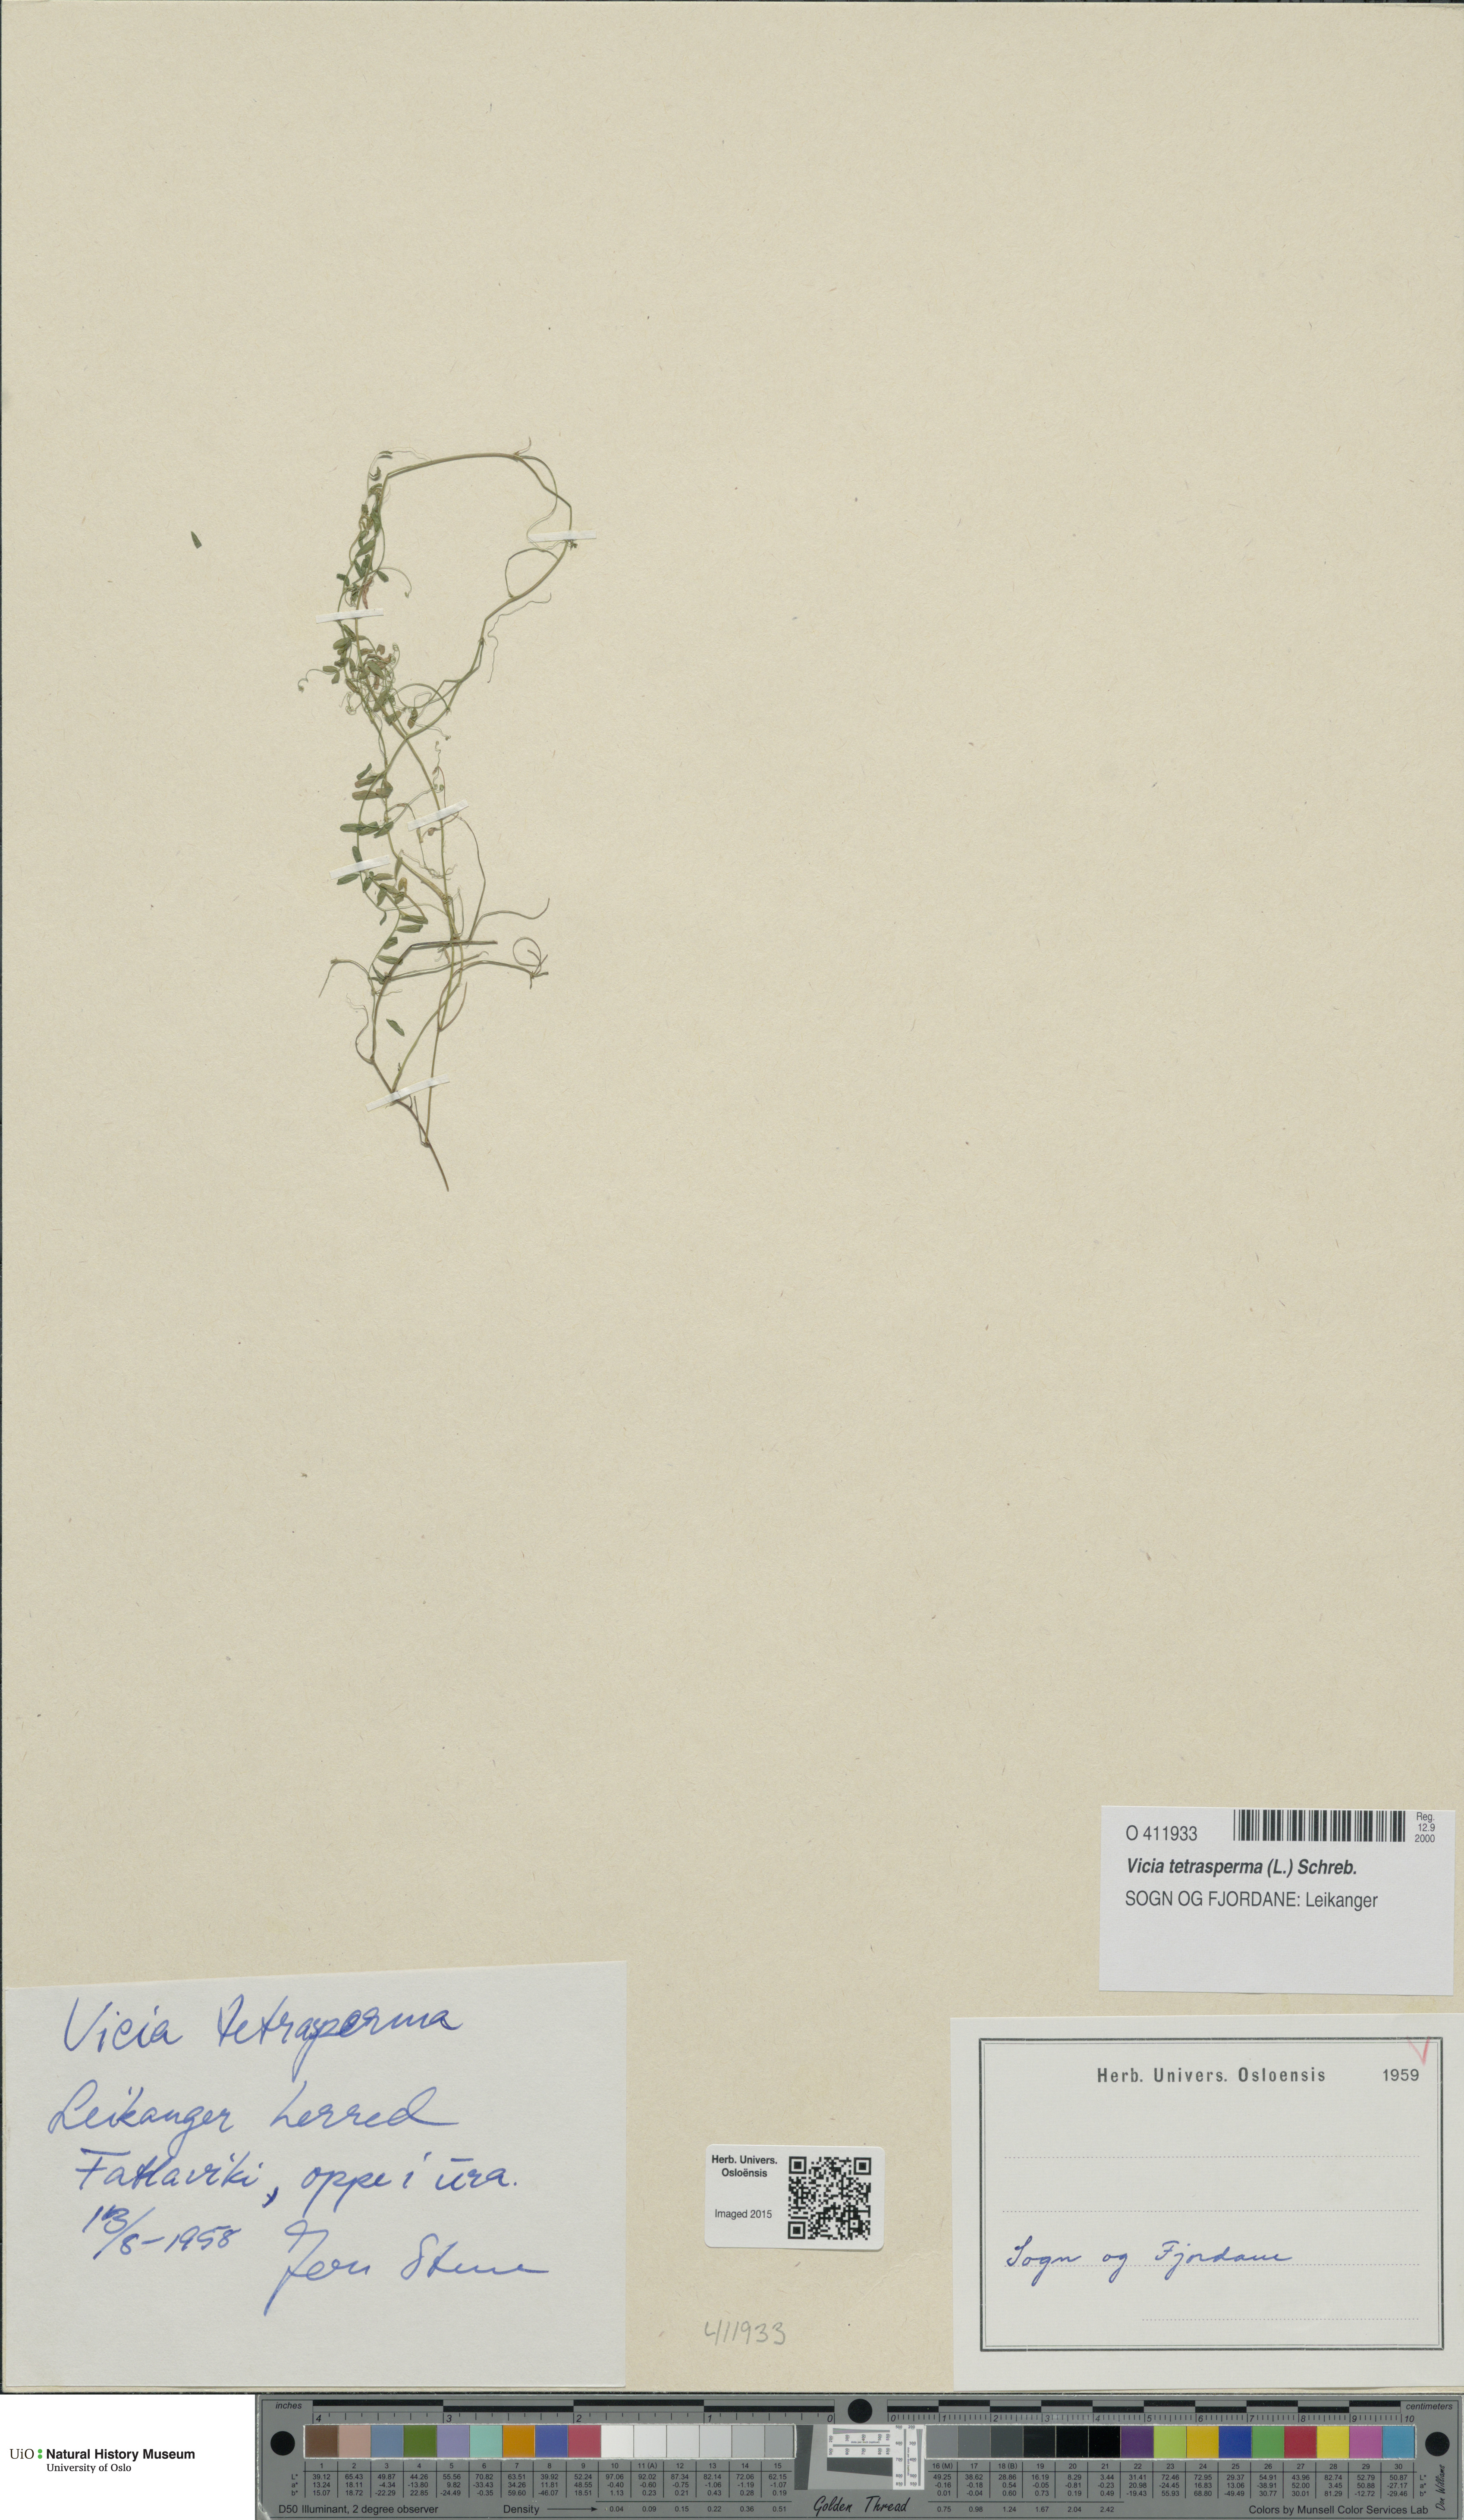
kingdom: Plantae
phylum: Tracheophyta
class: Magnoliopsida
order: Fabales
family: Fabaceae
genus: Vicia
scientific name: Vicia tetrasperma
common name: Smooth tare
